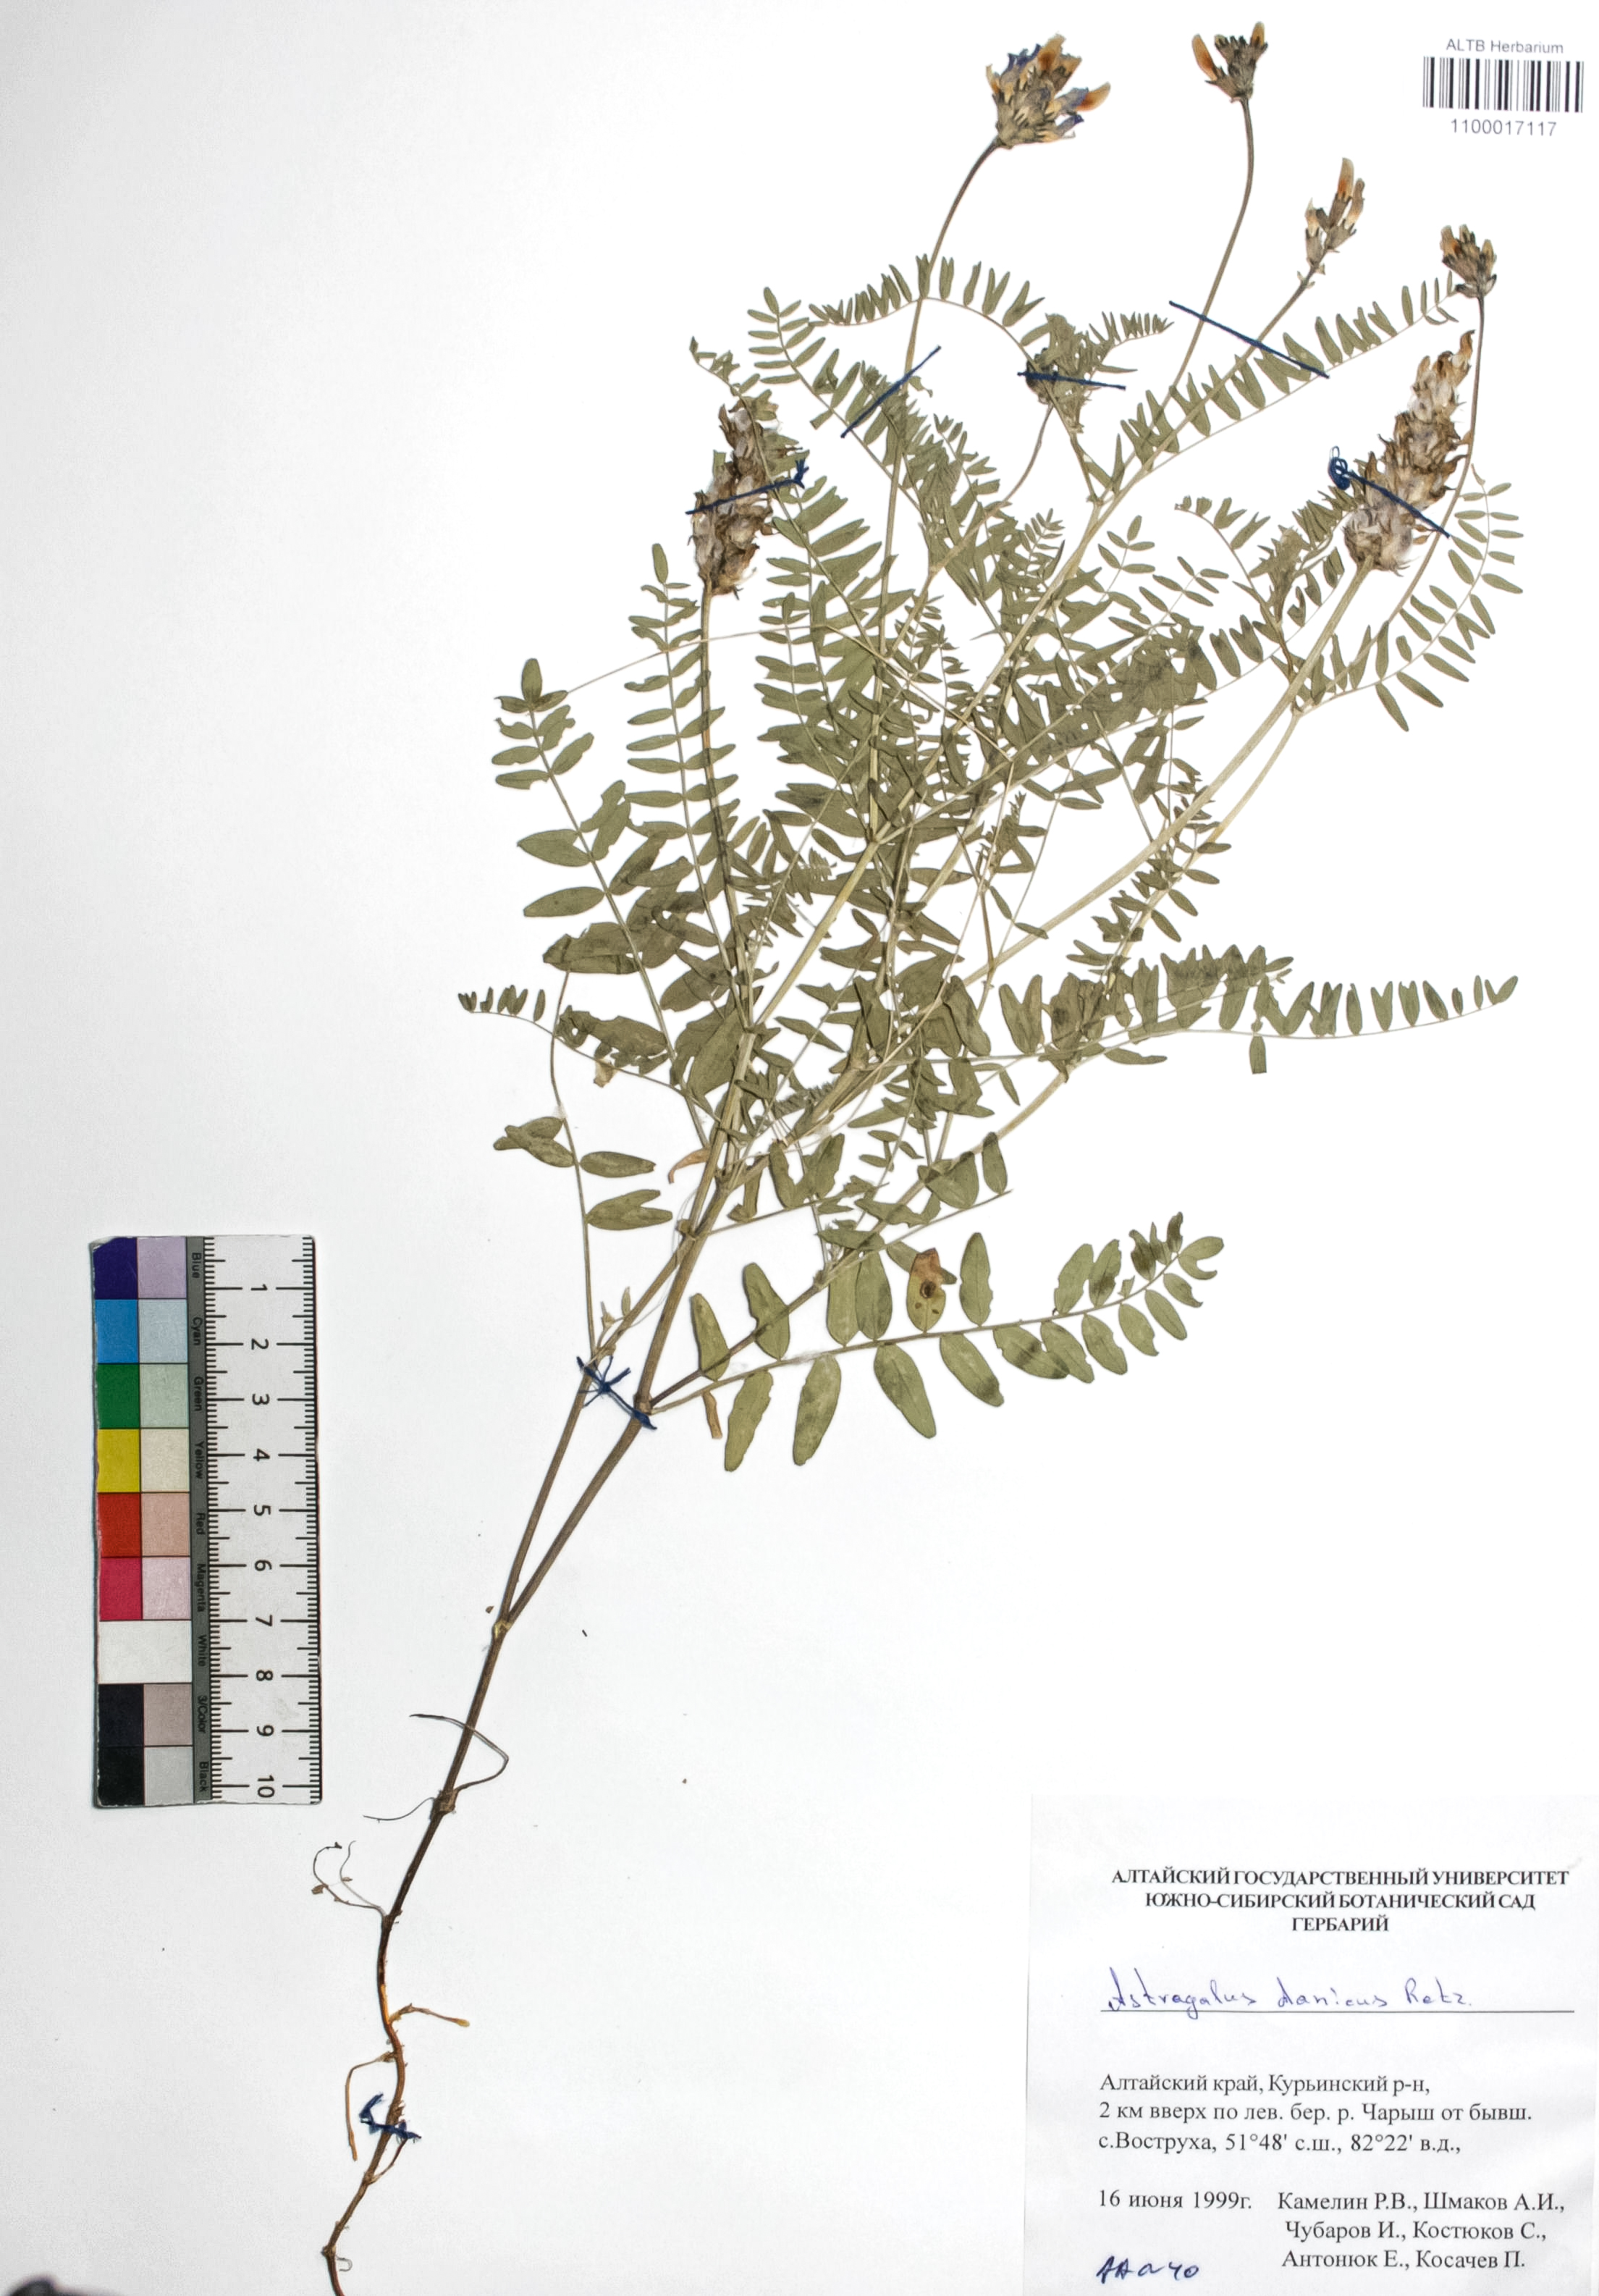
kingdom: Plantae
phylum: Tracheophyta
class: Magnoliopsida
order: Fabales
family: Fabaceae
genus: Astragalus
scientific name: Astragalus danicus
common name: Purple milk-vetch
